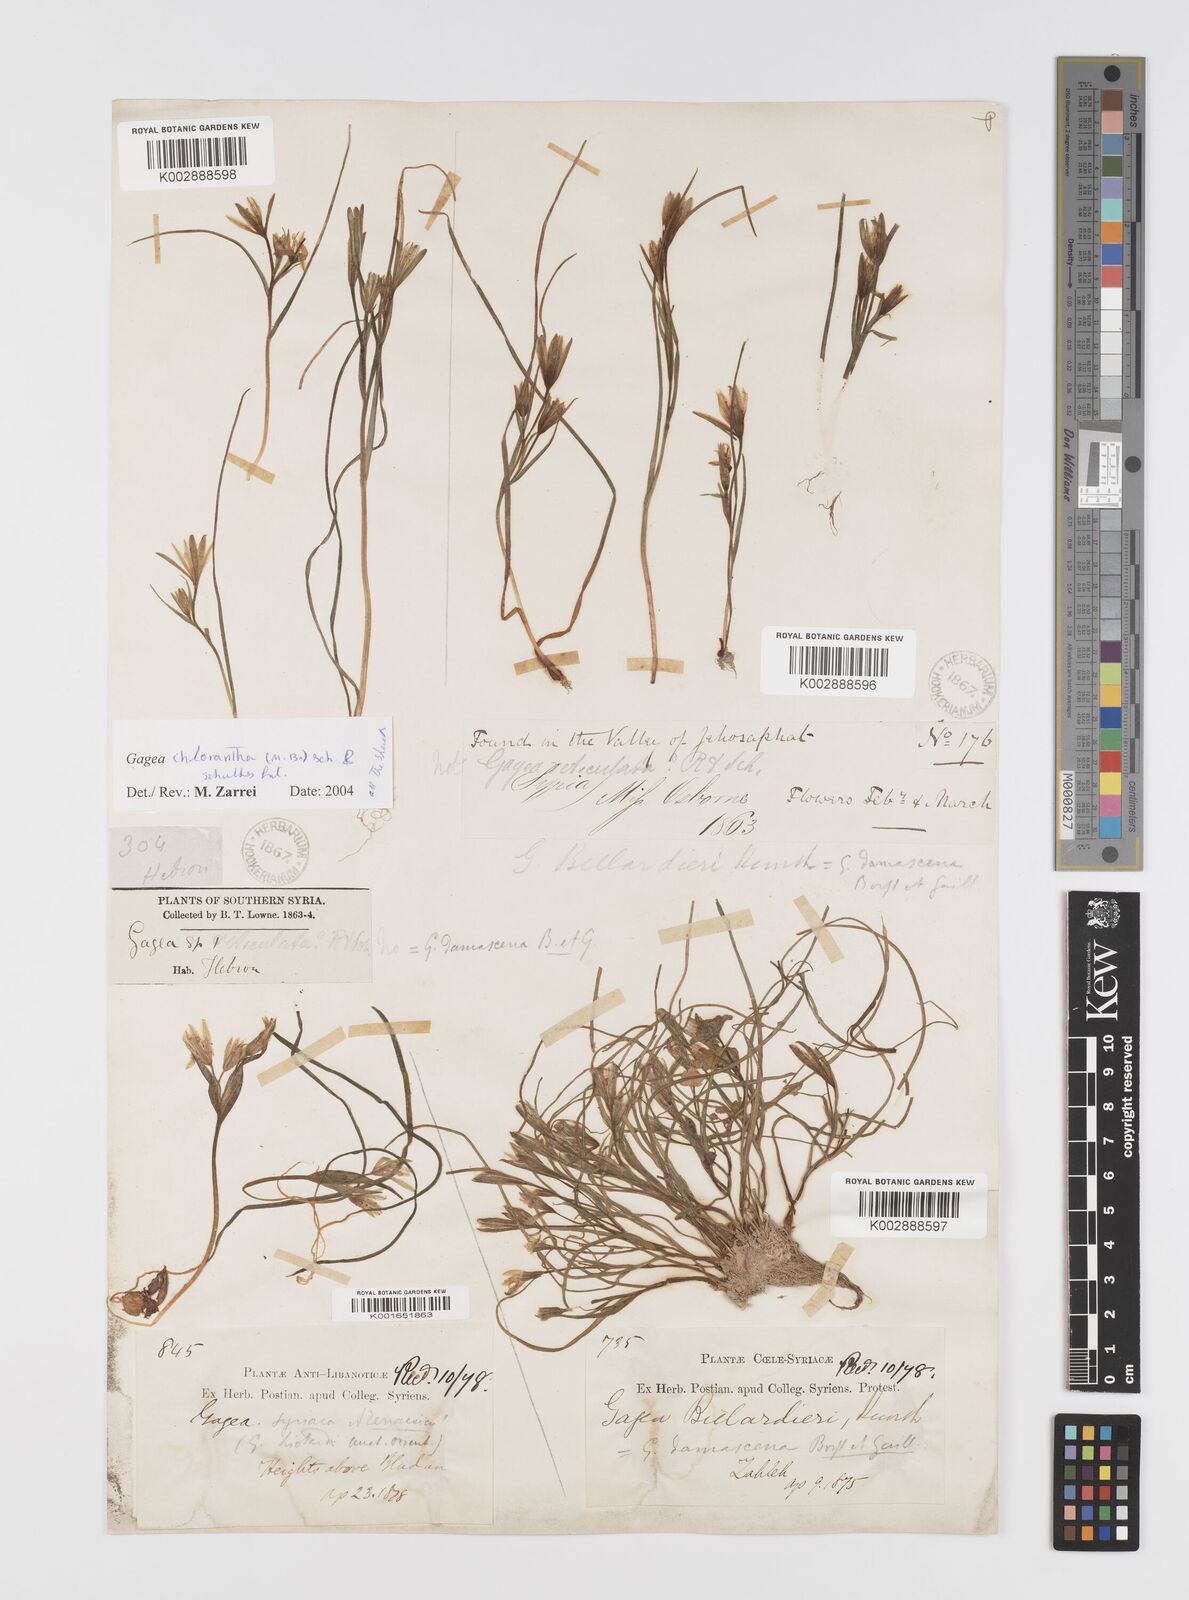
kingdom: Plantae
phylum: Tracheophyta
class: Liliopsida
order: Liliales
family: Liliaceae
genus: Gagea
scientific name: Gagea chlorantha
